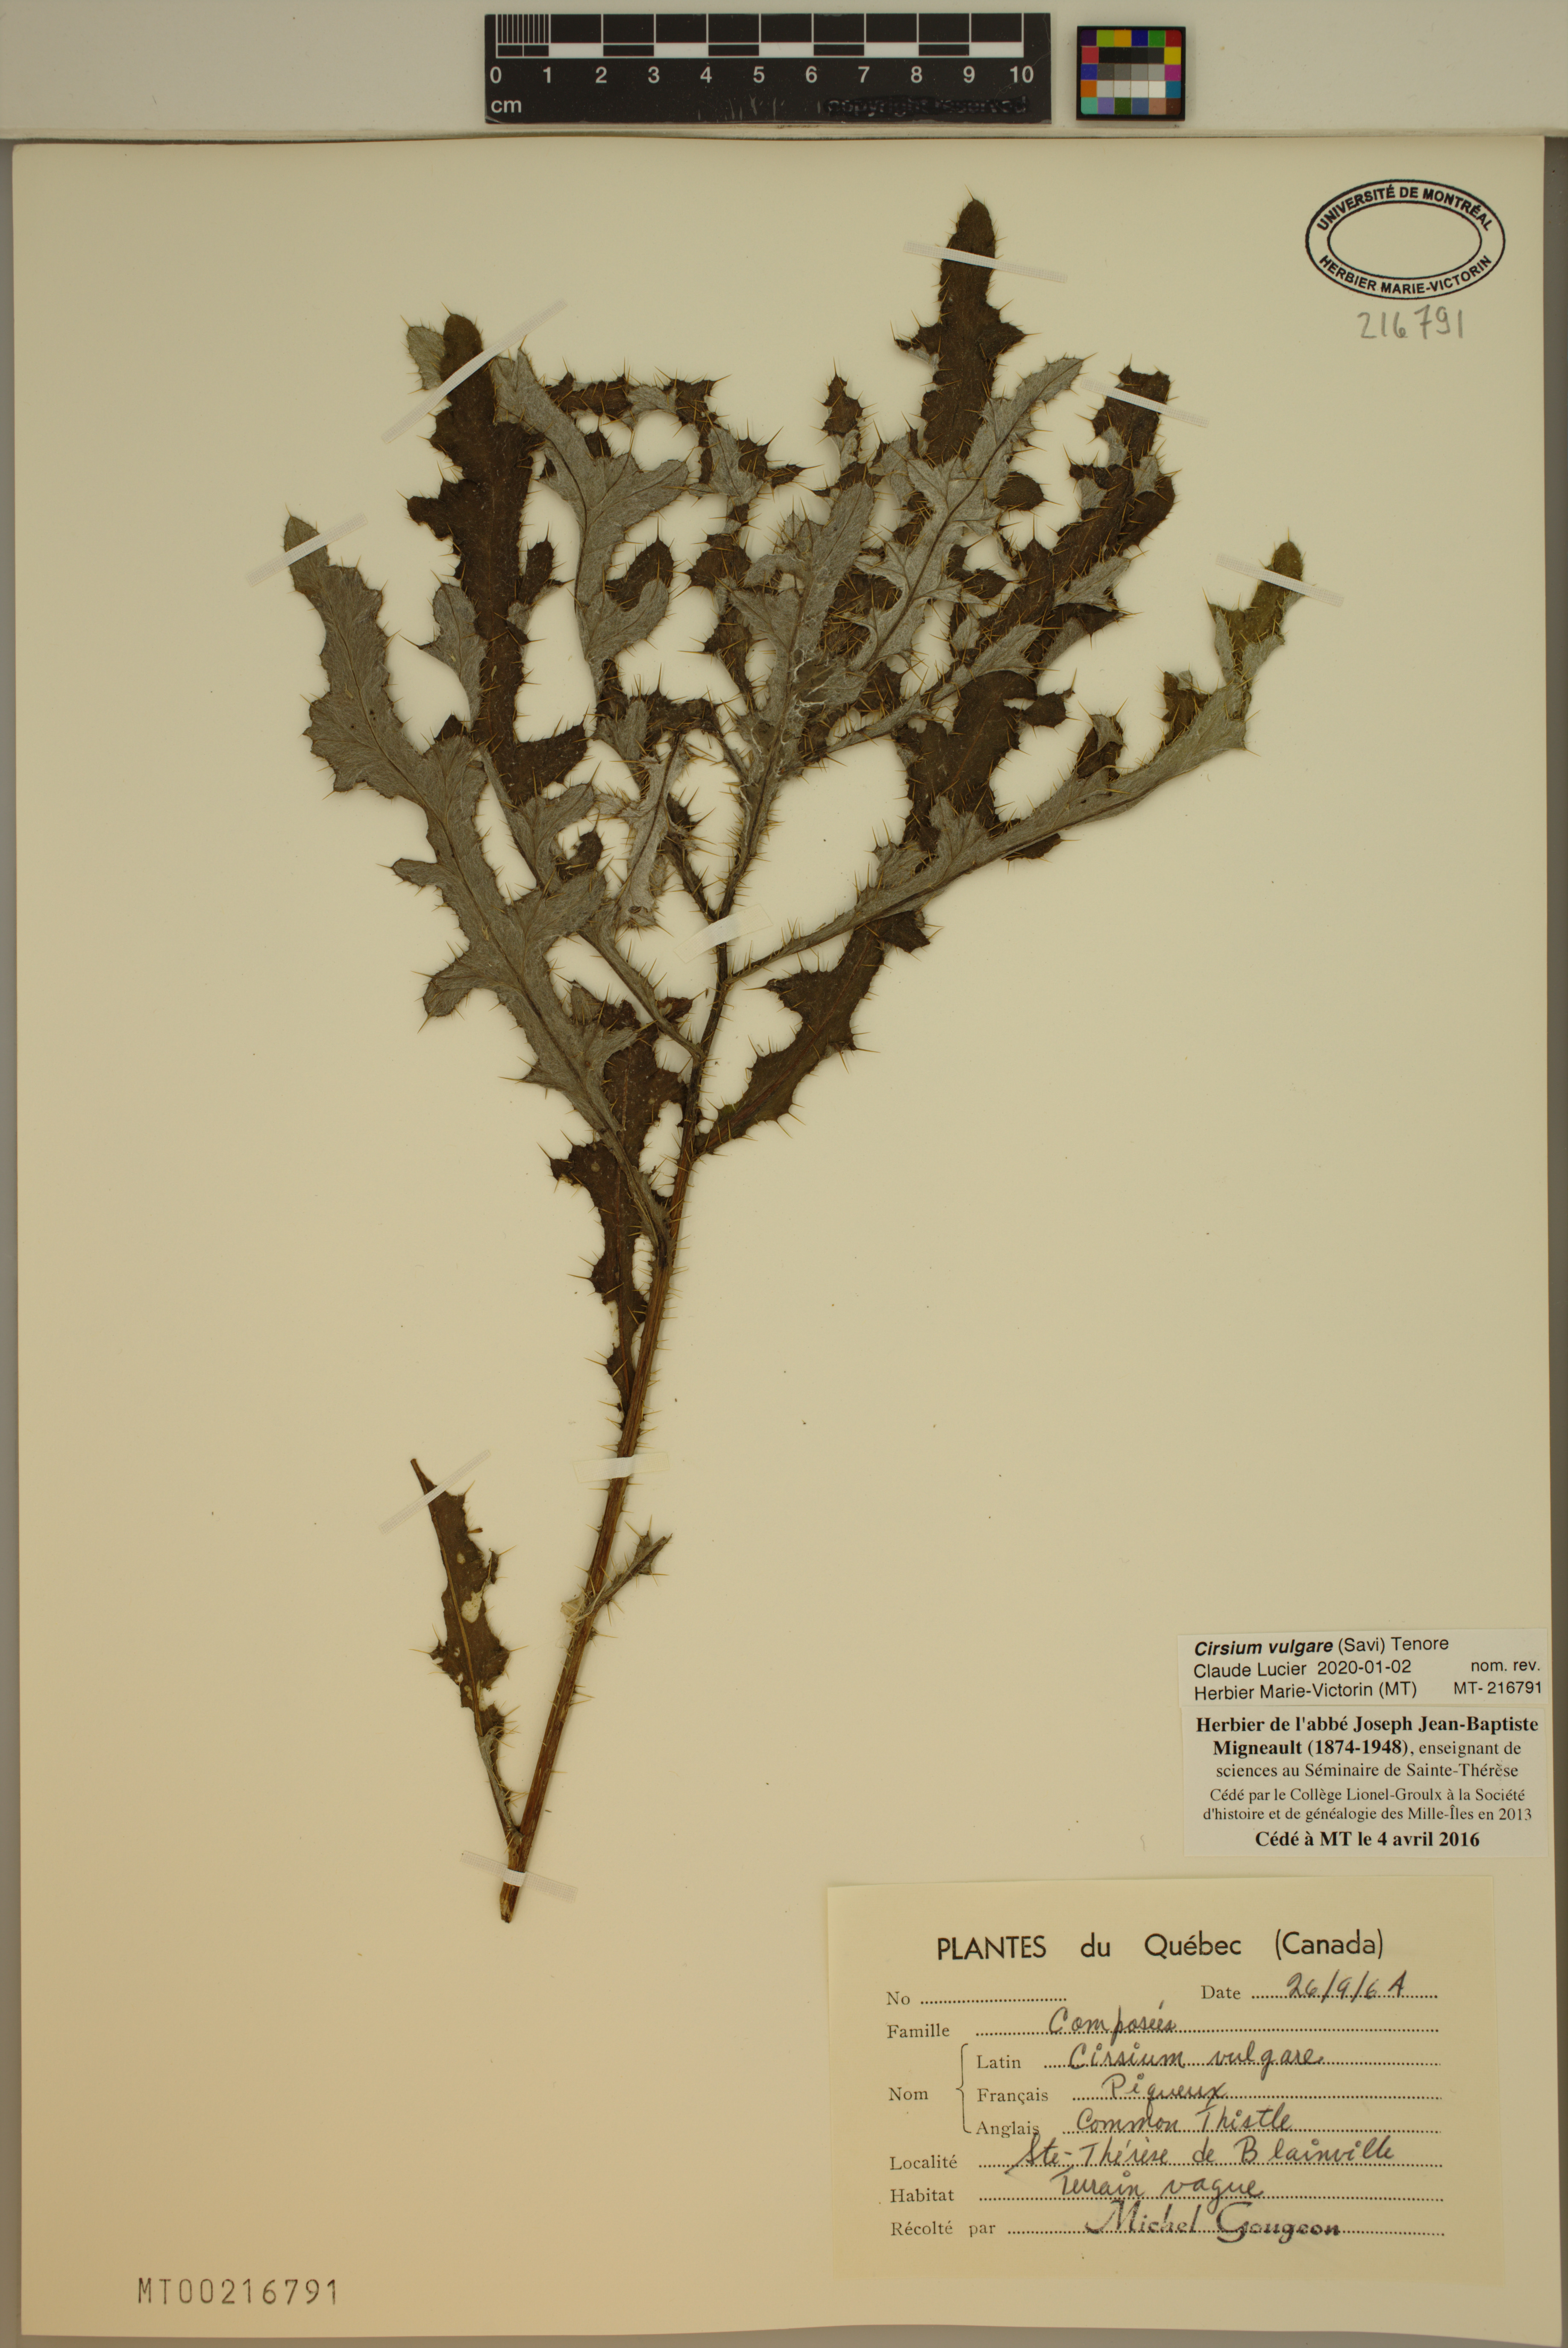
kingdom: Plantae
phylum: Tracheophyta
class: Magnoliopsida
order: Asterales
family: Asteraceae
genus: Cirsium
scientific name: Cirsium vulgare
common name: Bull thistle
